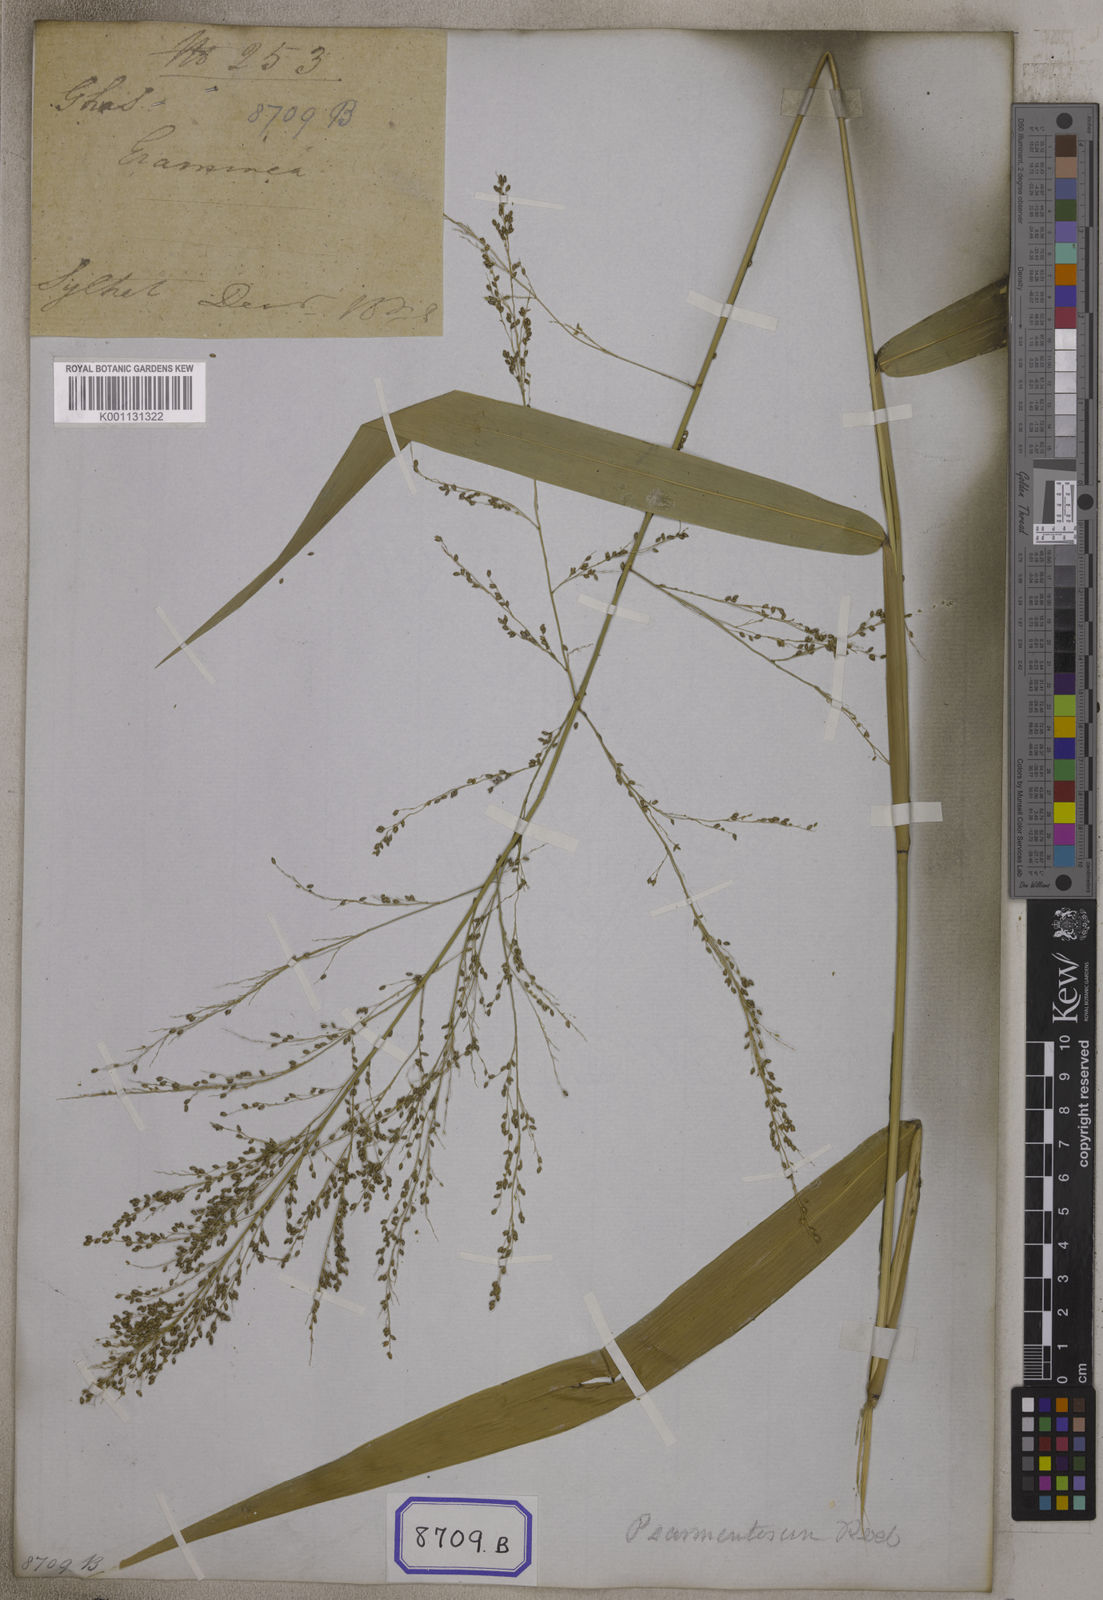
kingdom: Plantae
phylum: Tracheophyta
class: Liliopsida
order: Poales
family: Poaceae
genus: Panicum
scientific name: Panicum
